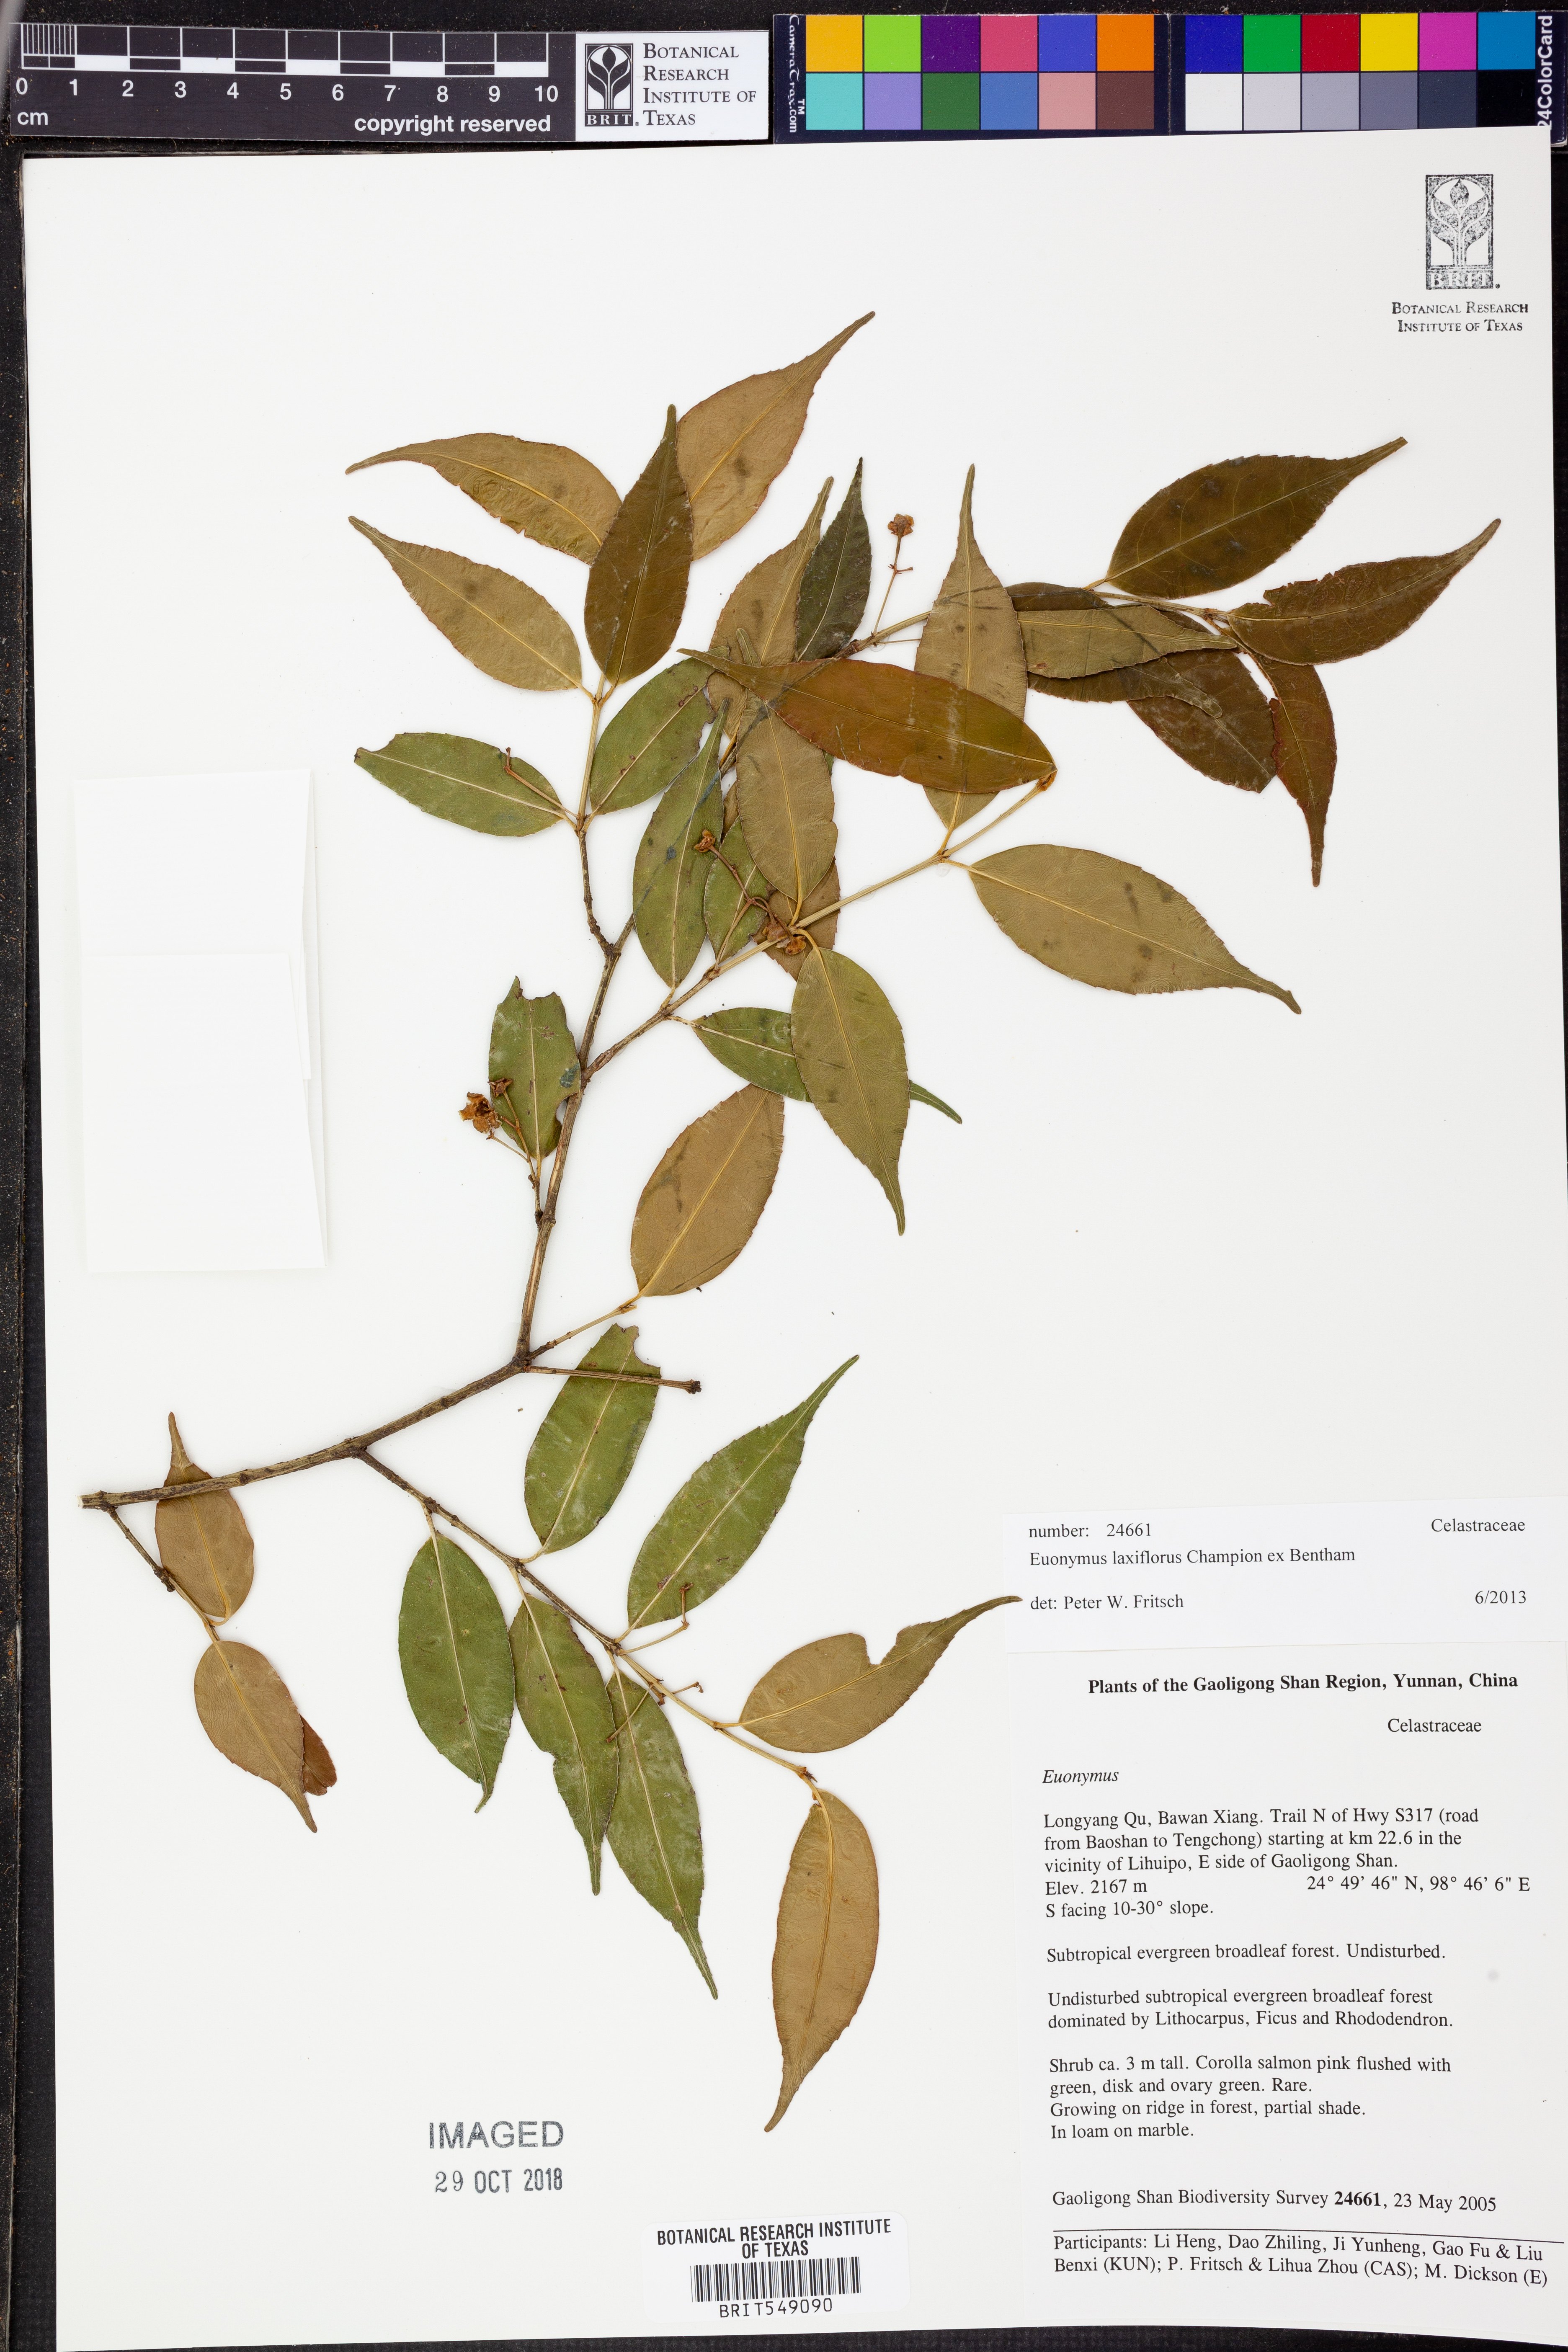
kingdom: Plantae
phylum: Tracheophyta
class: Magnoliopsida
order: Celastrales
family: Celastraceae
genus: Euonymus
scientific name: Euonymus laxiflorus
